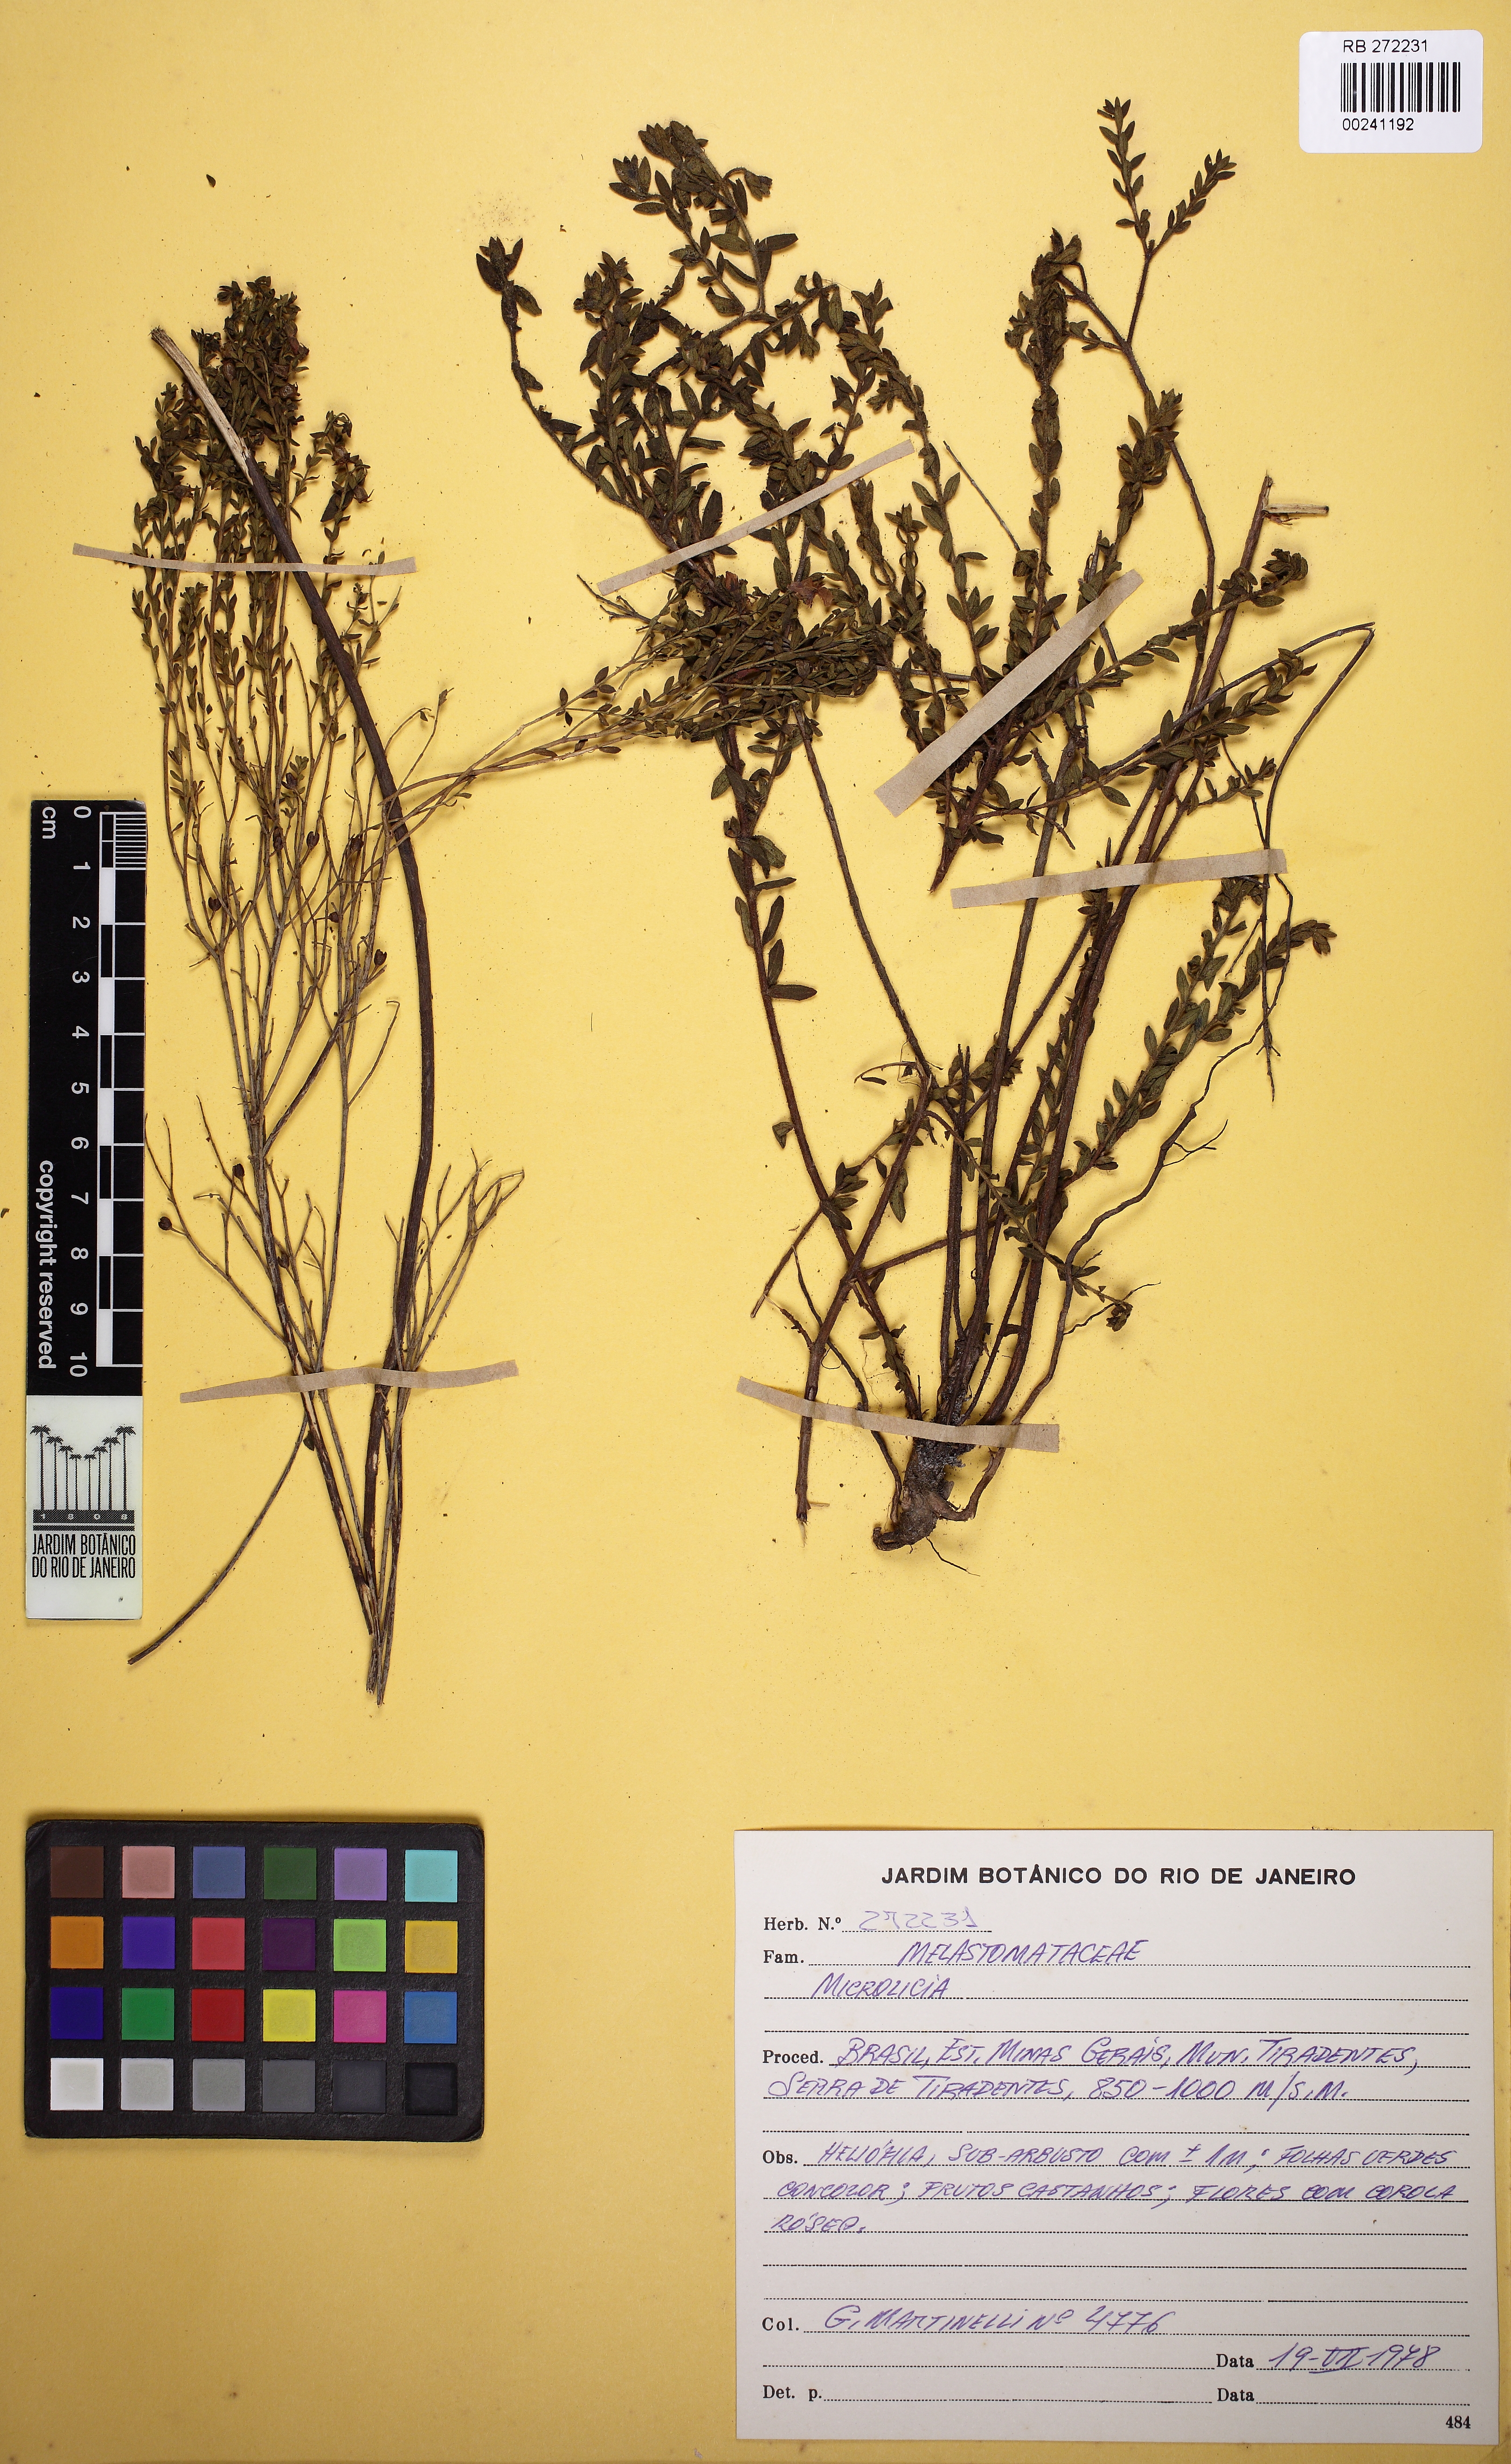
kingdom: Plantae
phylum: Tracheophyta
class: Magnoliopsida
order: Myrtales
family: Melastomataceae
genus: Microlicia
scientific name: Microlicia fulva
